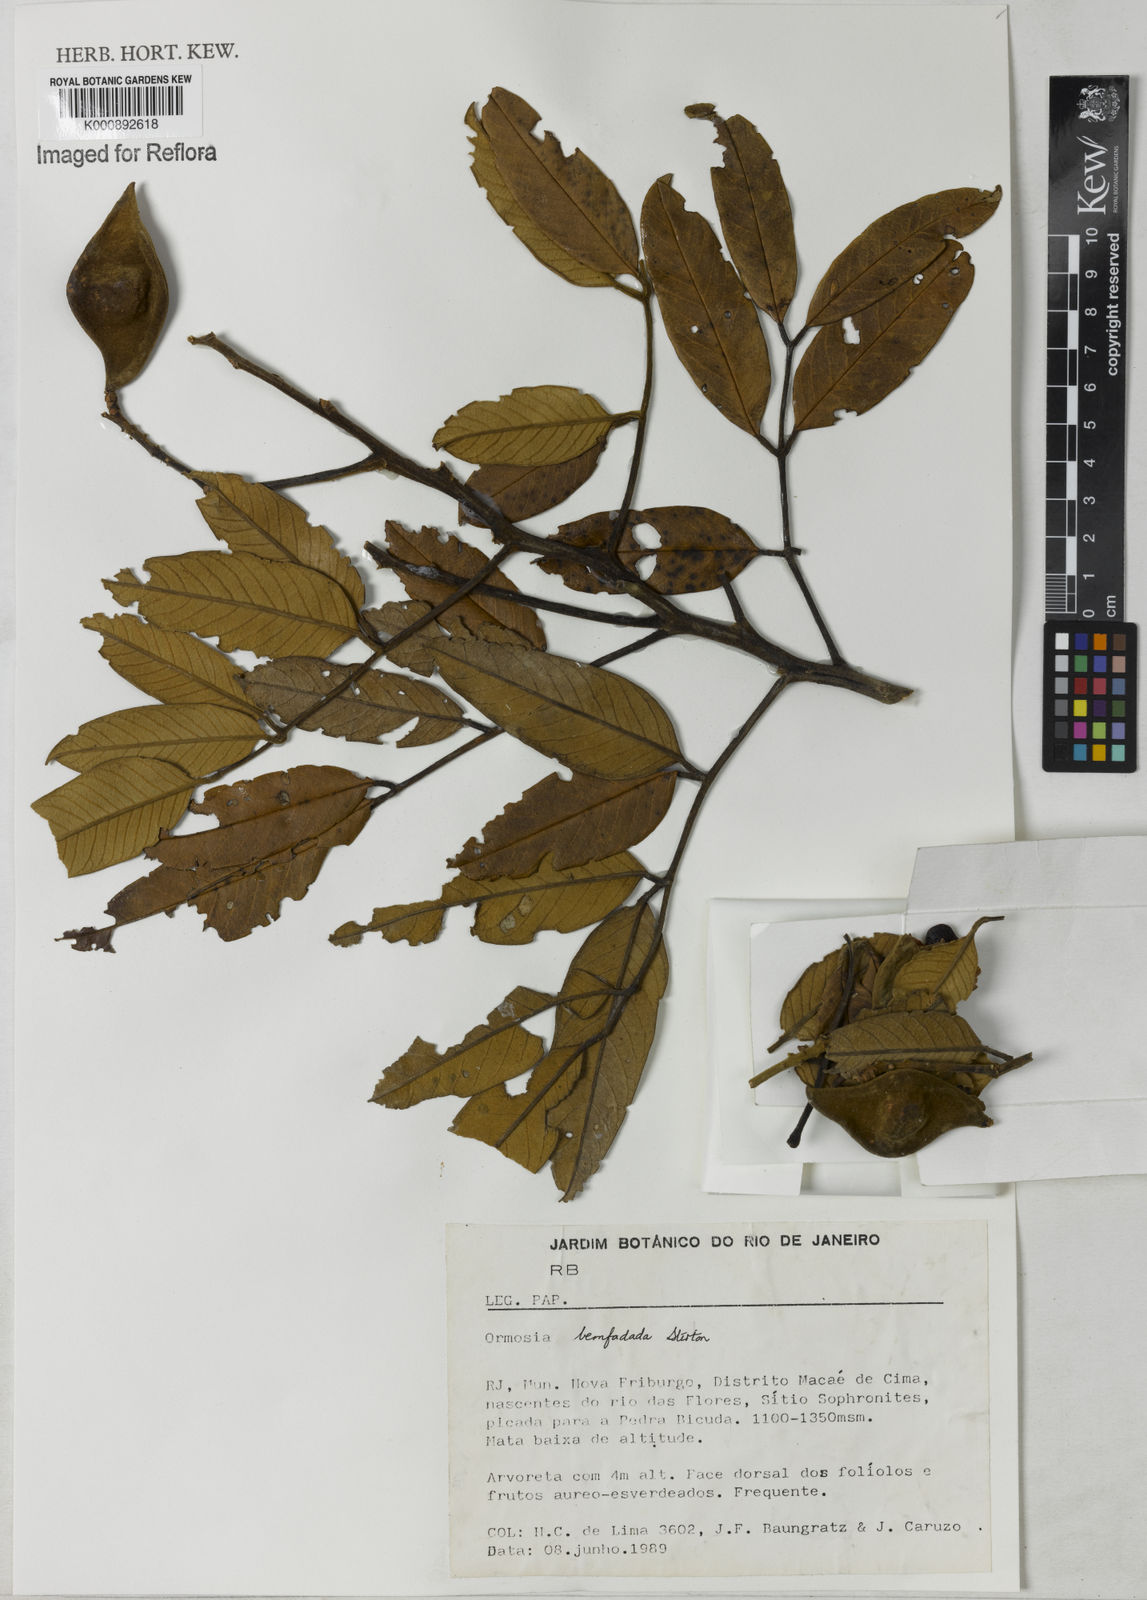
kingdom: Plantae
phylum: Tracheophyta
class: Magnoliopsida
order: Fabales
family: Fabaceae
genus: Ormosia
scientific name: Ormosia
